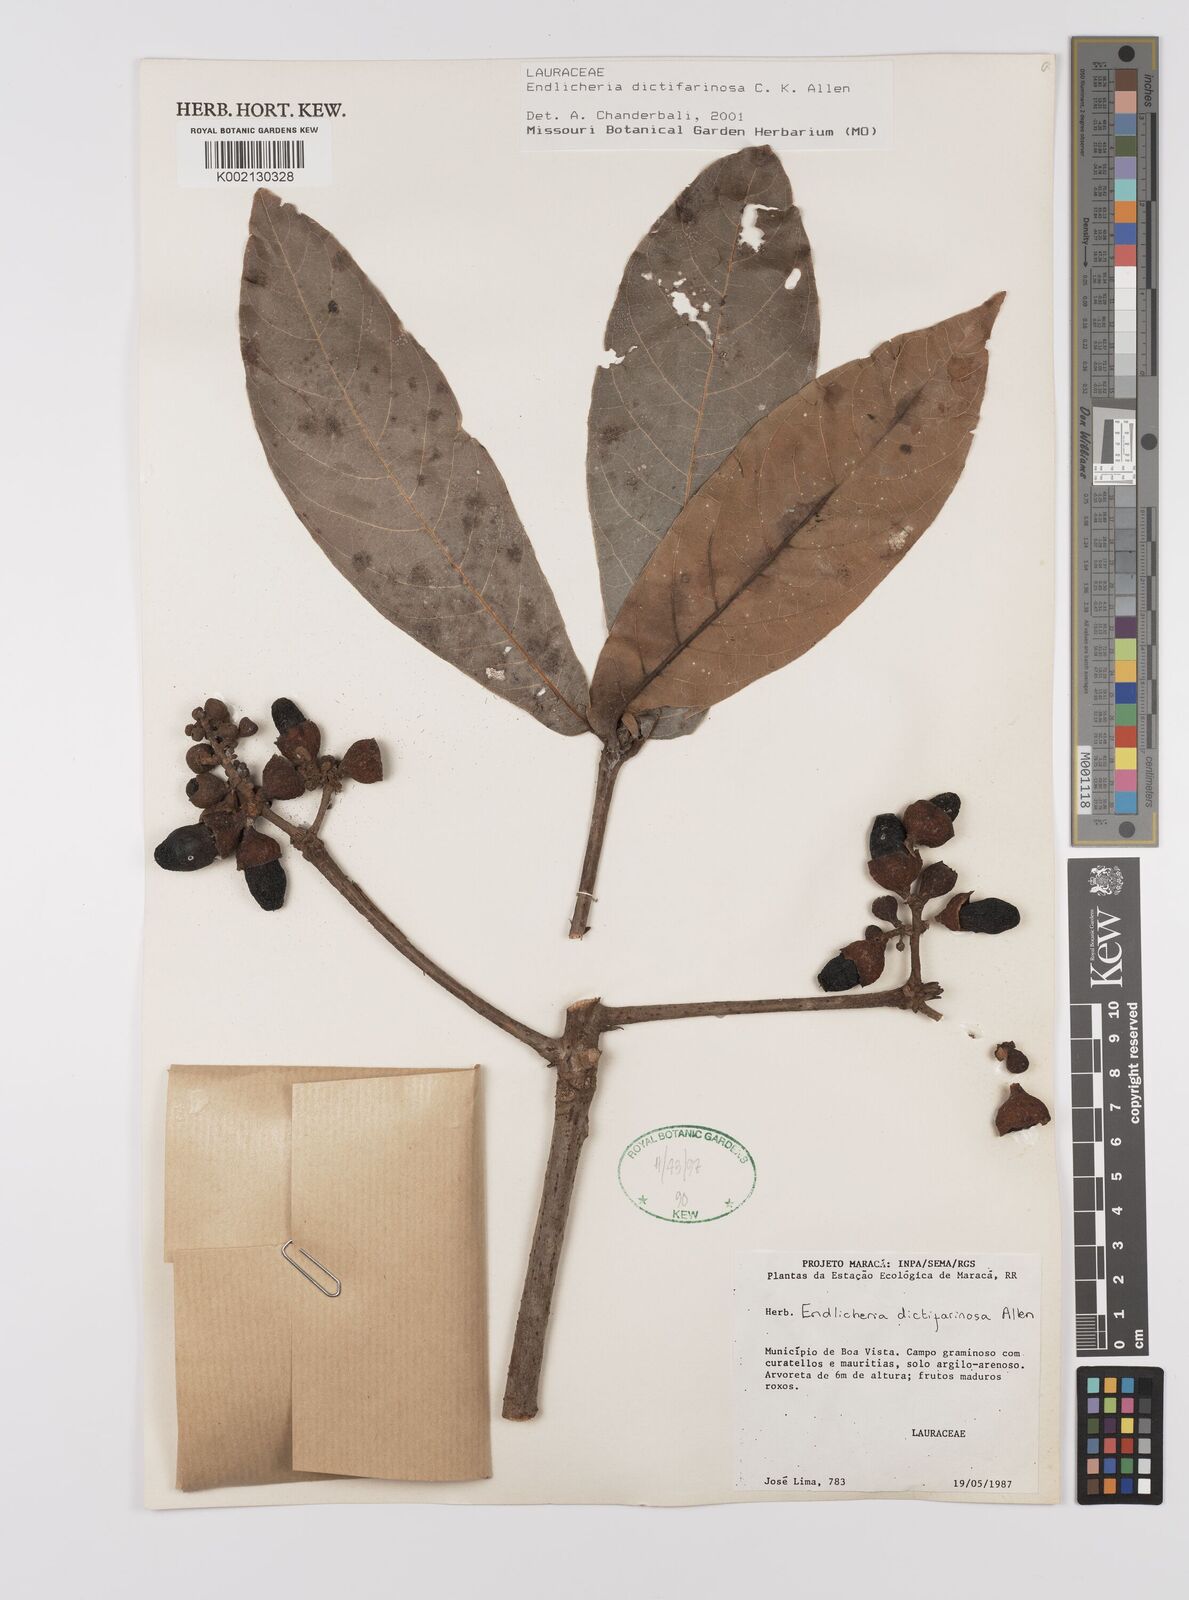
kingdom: Plantae
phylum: Tracheophyta
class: Magnoliopsida
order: Laurales
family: Lauraceae
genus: Endlicheria
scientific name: Endlicheria dictifarinosa
